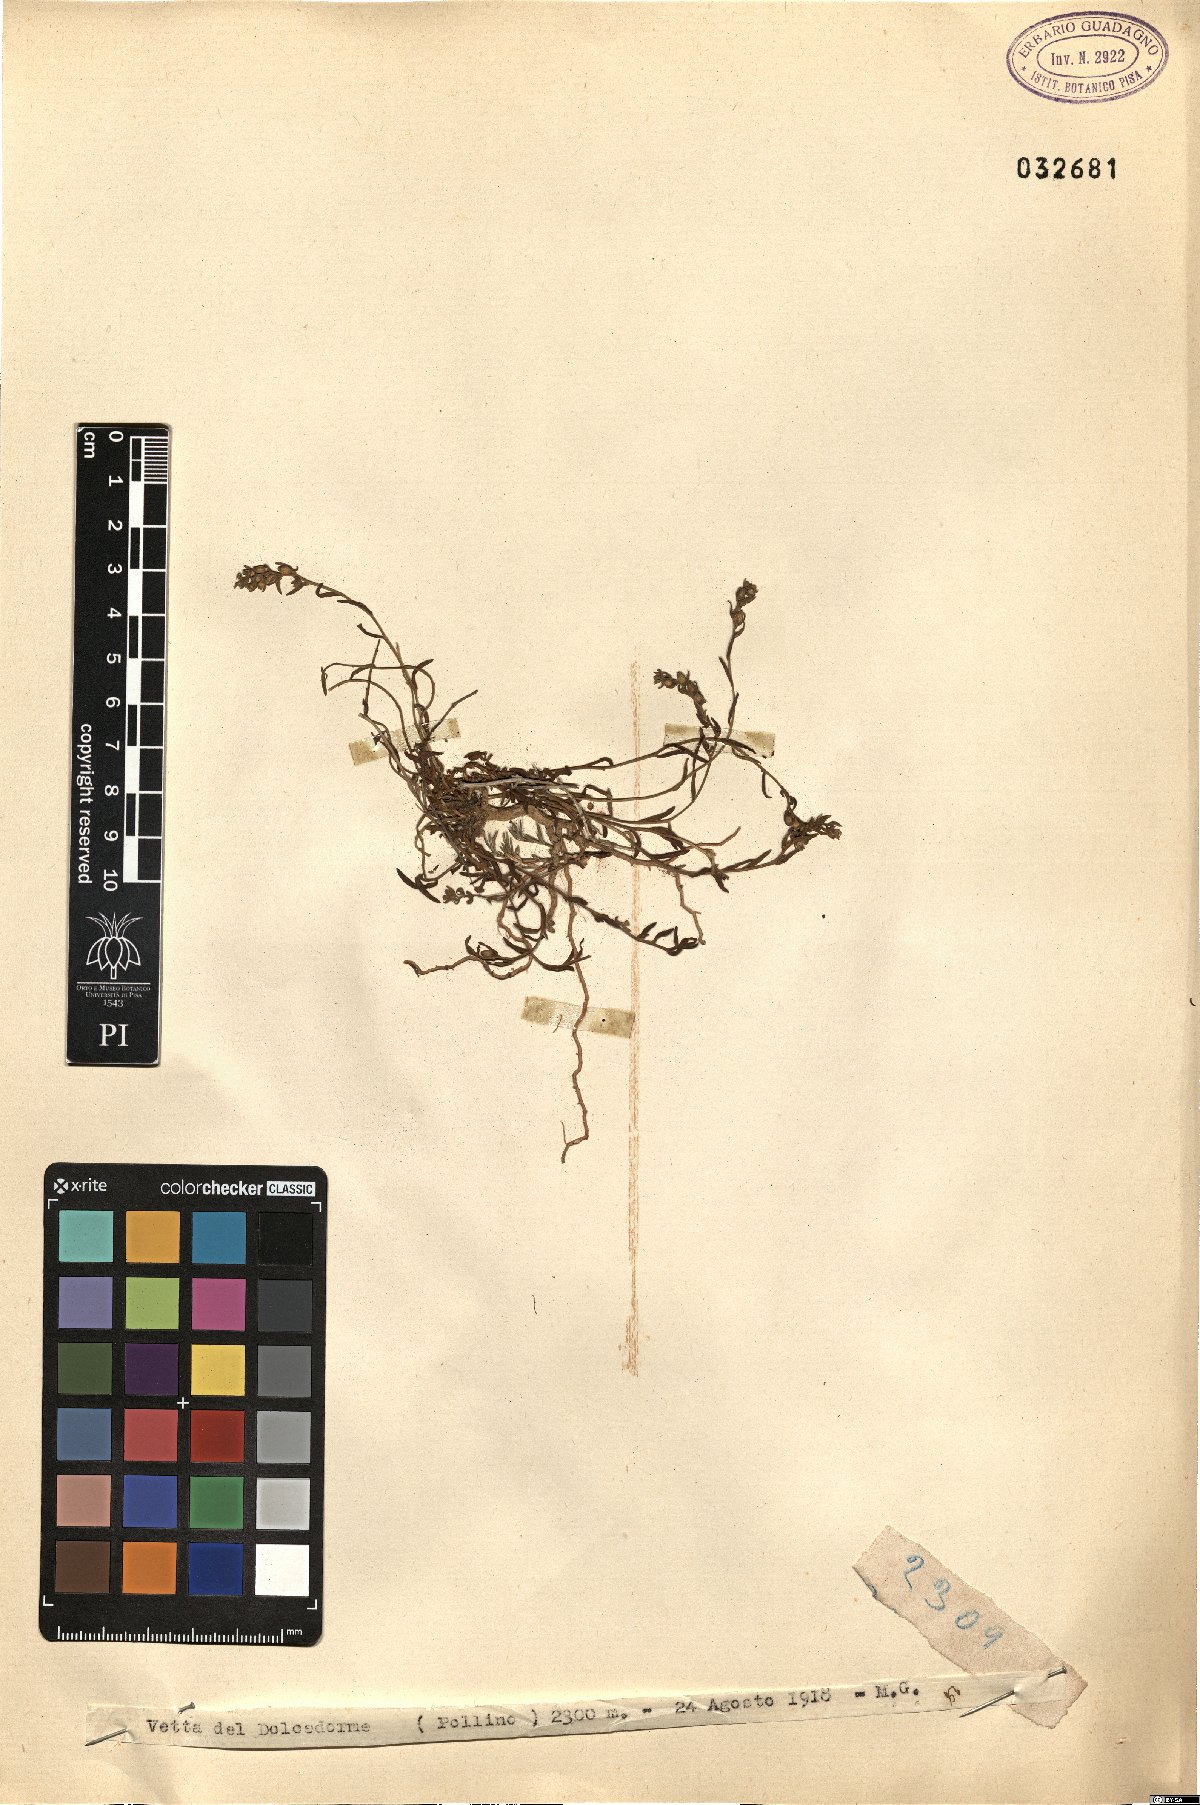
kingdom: Plantae
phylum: Tracheophyta
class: Magnoliopsida
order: Santalales
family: Thesiaceae
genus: Thesium
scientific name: Thesium
